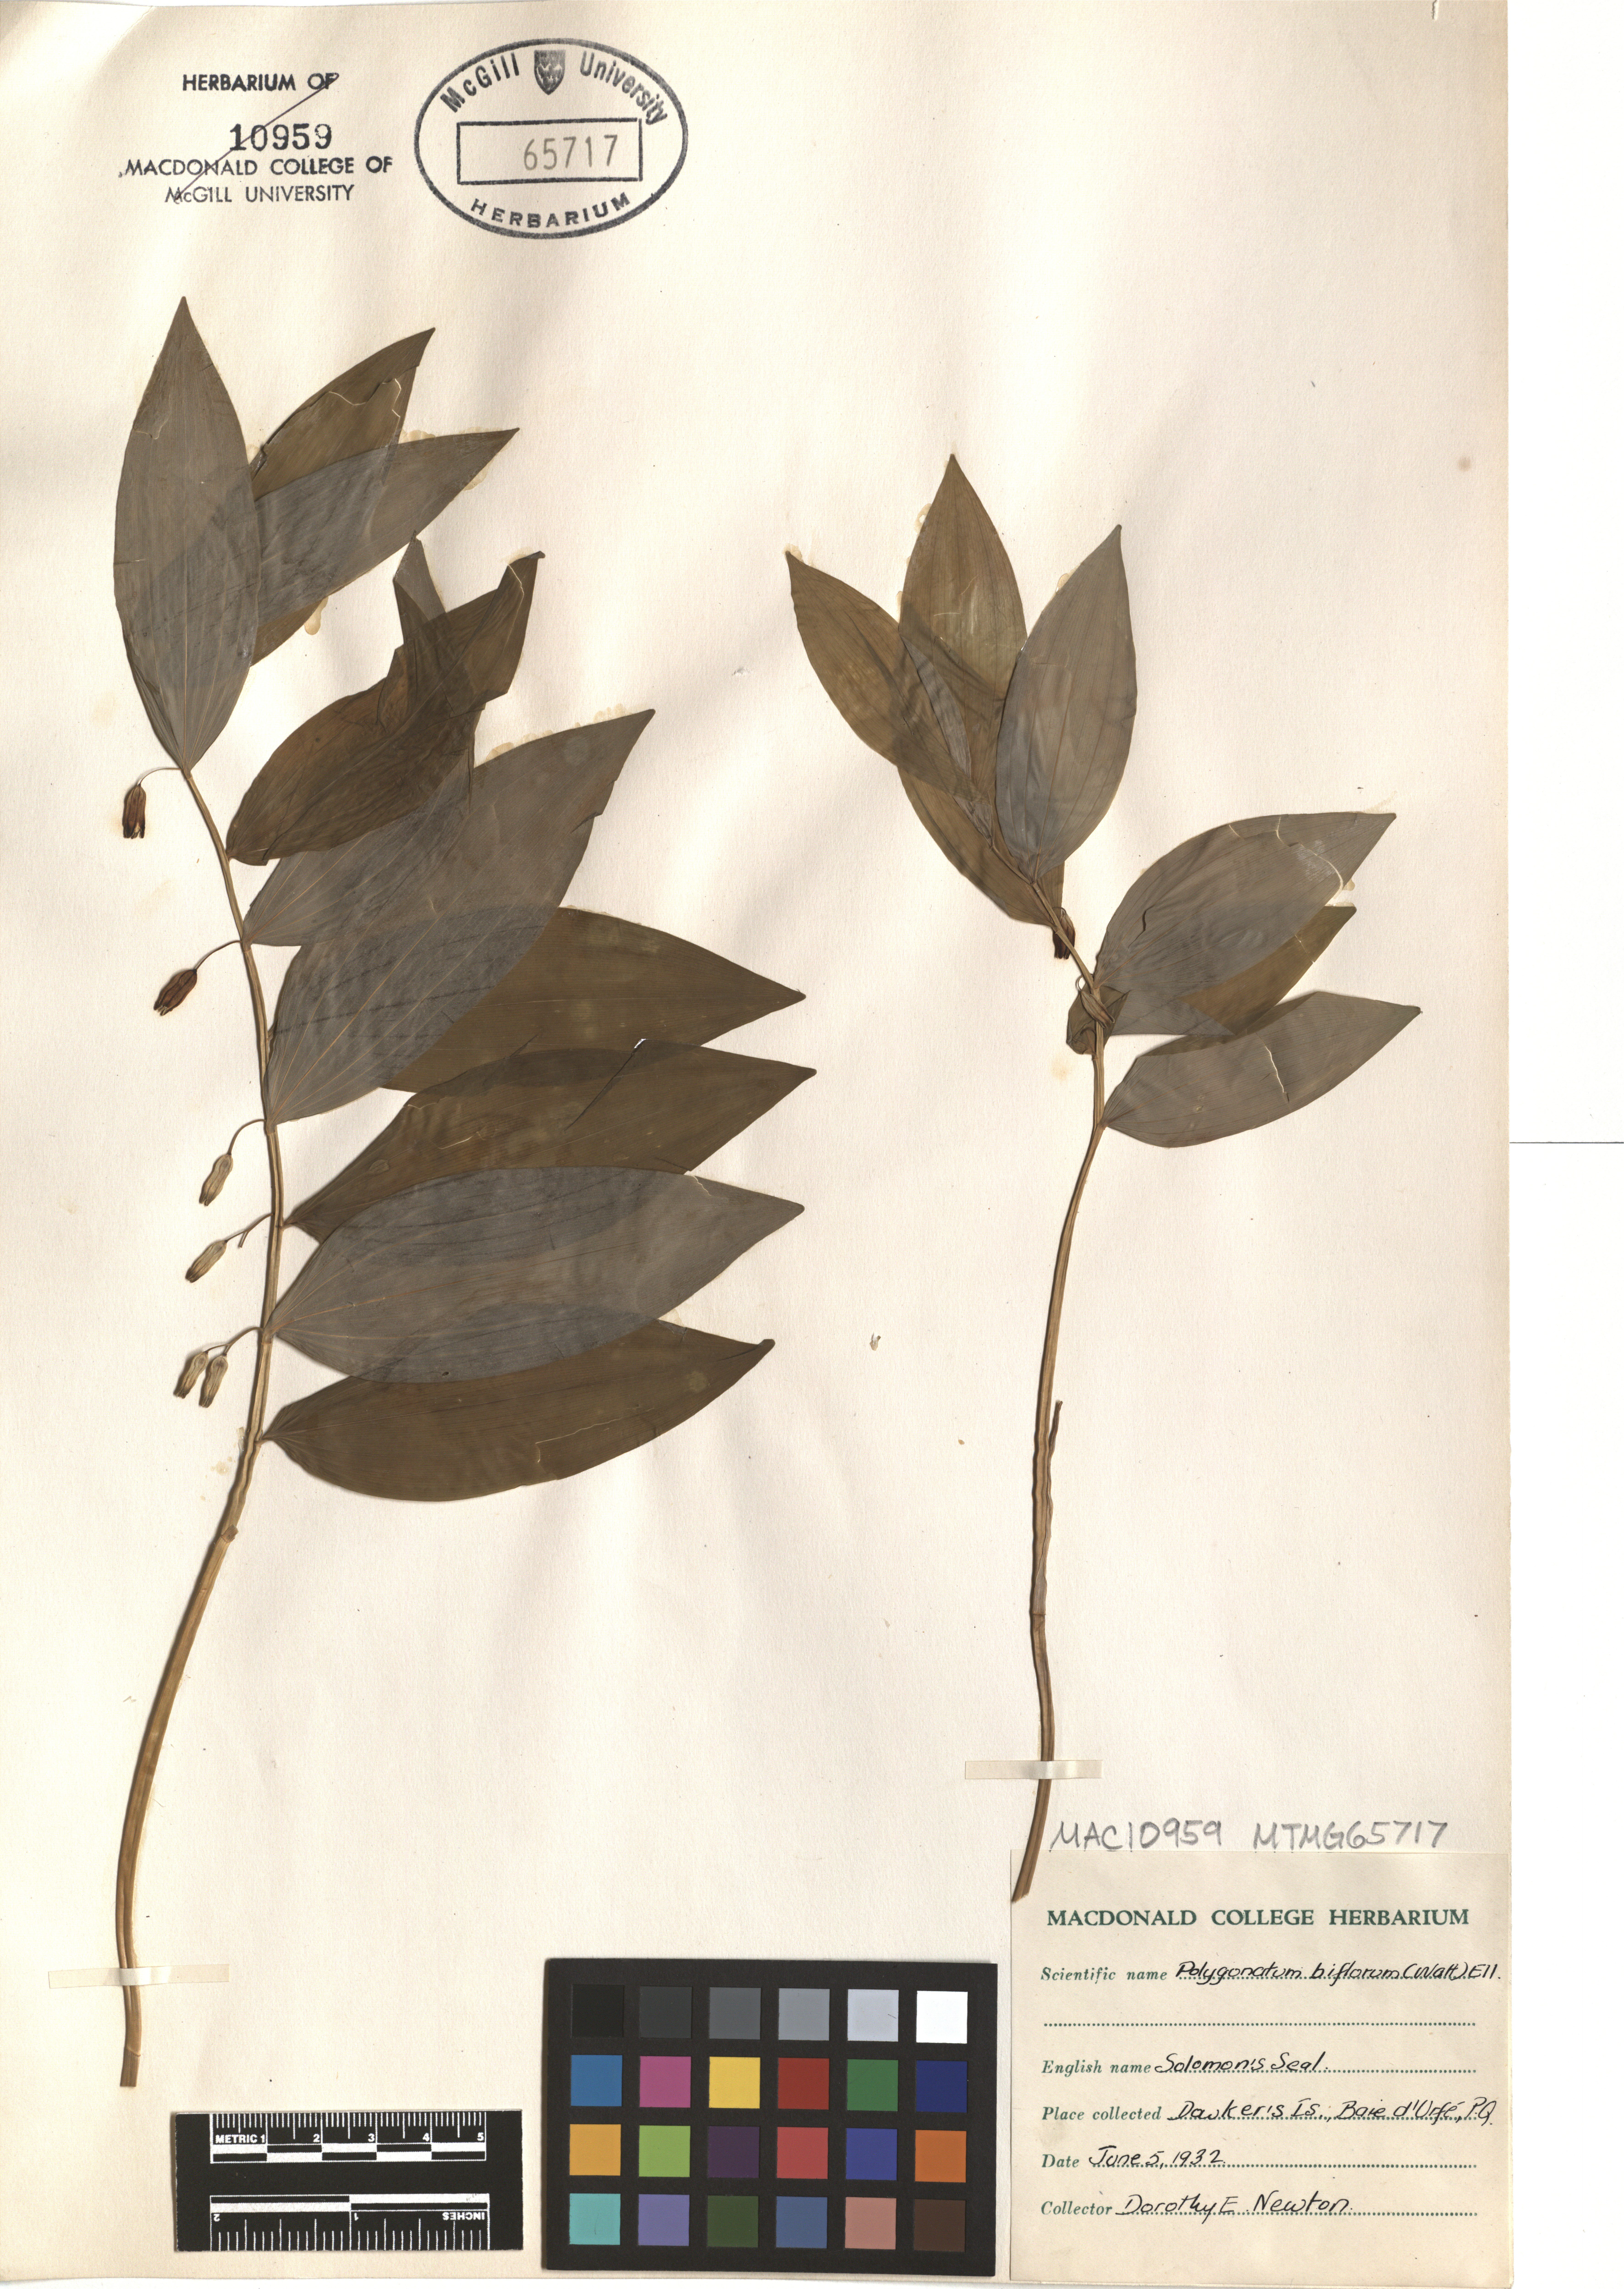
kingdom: Plantae
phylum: Tracheophyta
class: Liliopsida
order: Asparagales
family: Asparagaceae
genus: Polygonatum
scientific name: Polygonatum biflorum
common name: American solomon's-seal
